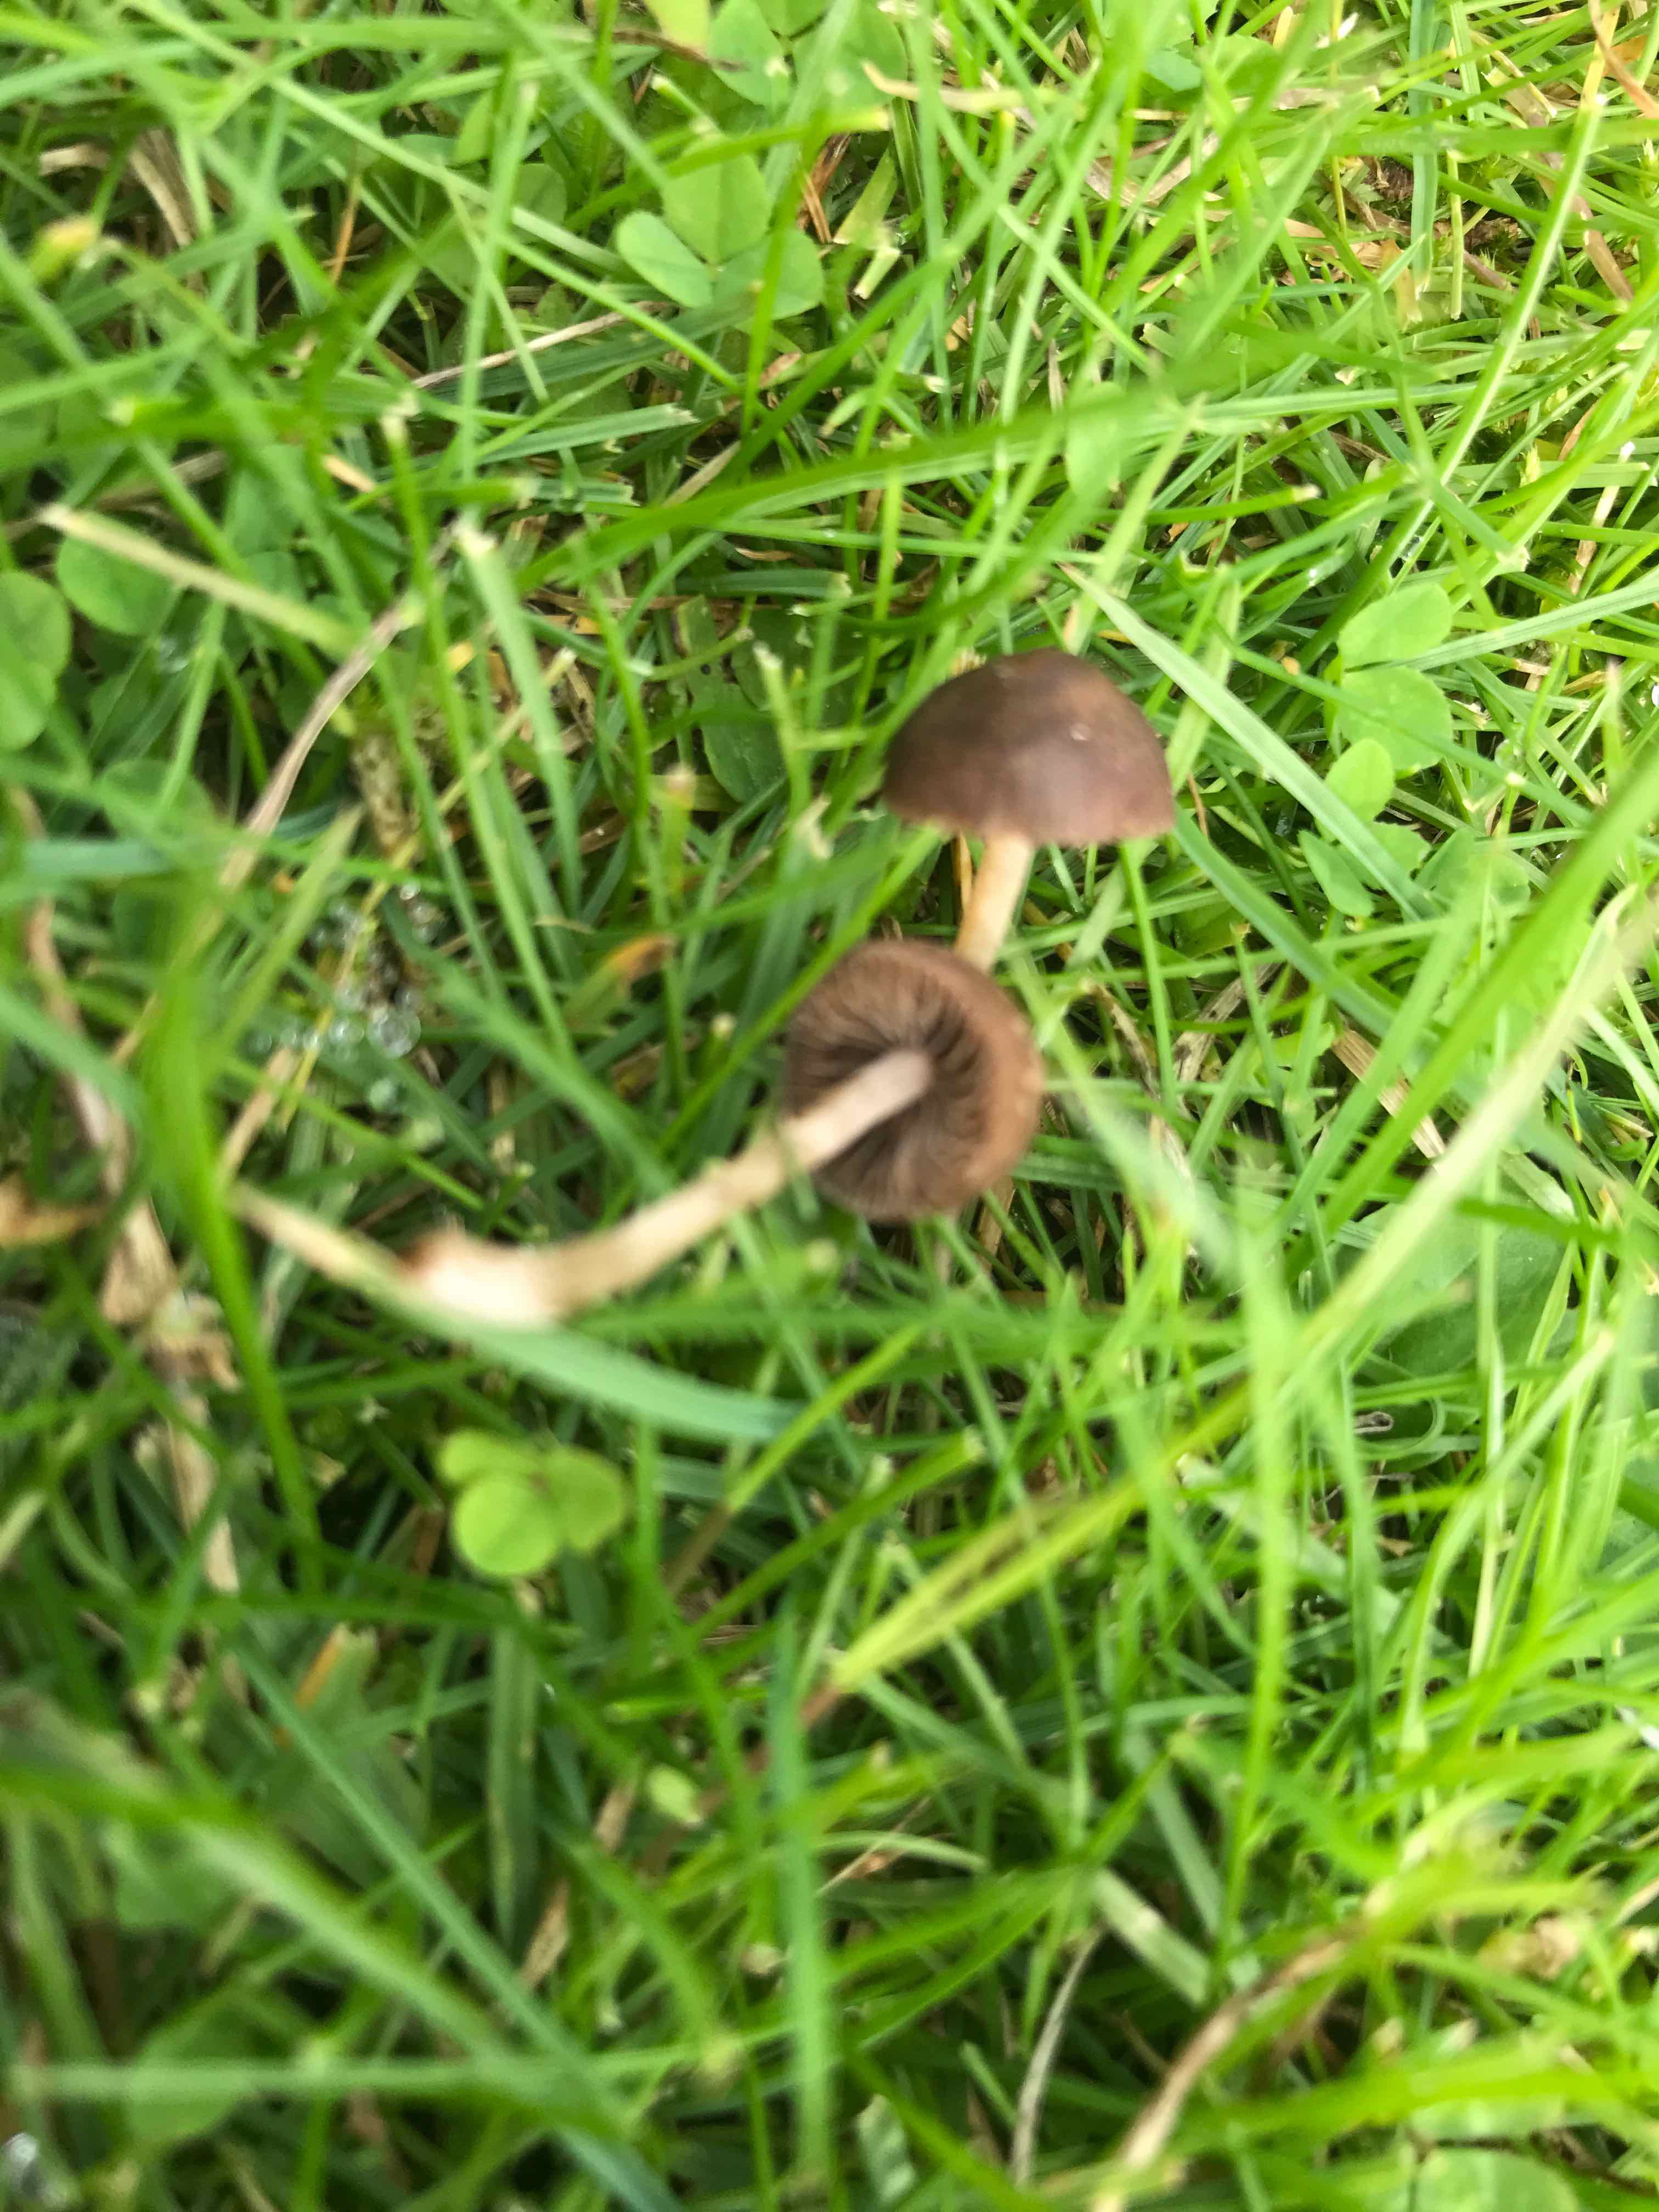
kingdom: Fungi
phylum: Basidiomycota
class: Agaricomycetes
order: Agaricales
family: Bolbitiaceae
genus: Panaeolina
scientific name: Panaeolina foenisecii
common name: høslætsvamp
